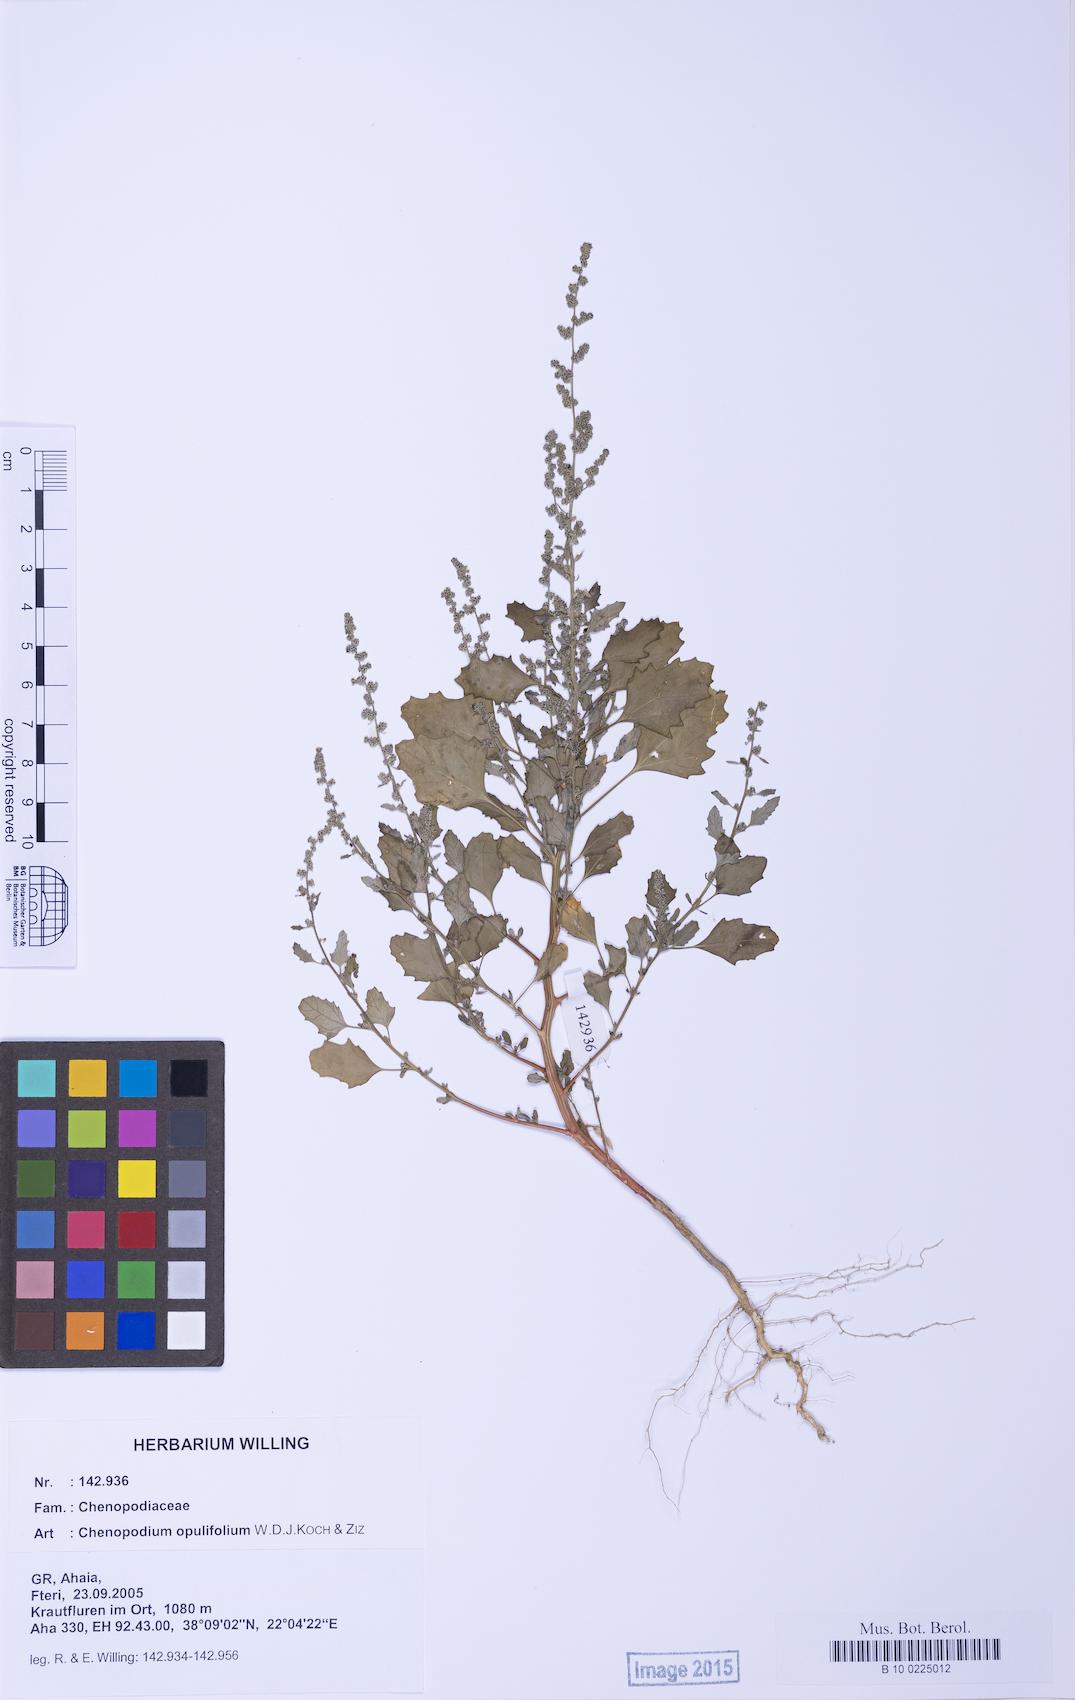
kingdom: Plantae
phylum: Tracheophyta
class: Magnoliopsida
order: Caryophyllales
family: Amaranthaceae
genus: Chenopodium
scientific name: Chenopodium album
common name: Fat-hen
